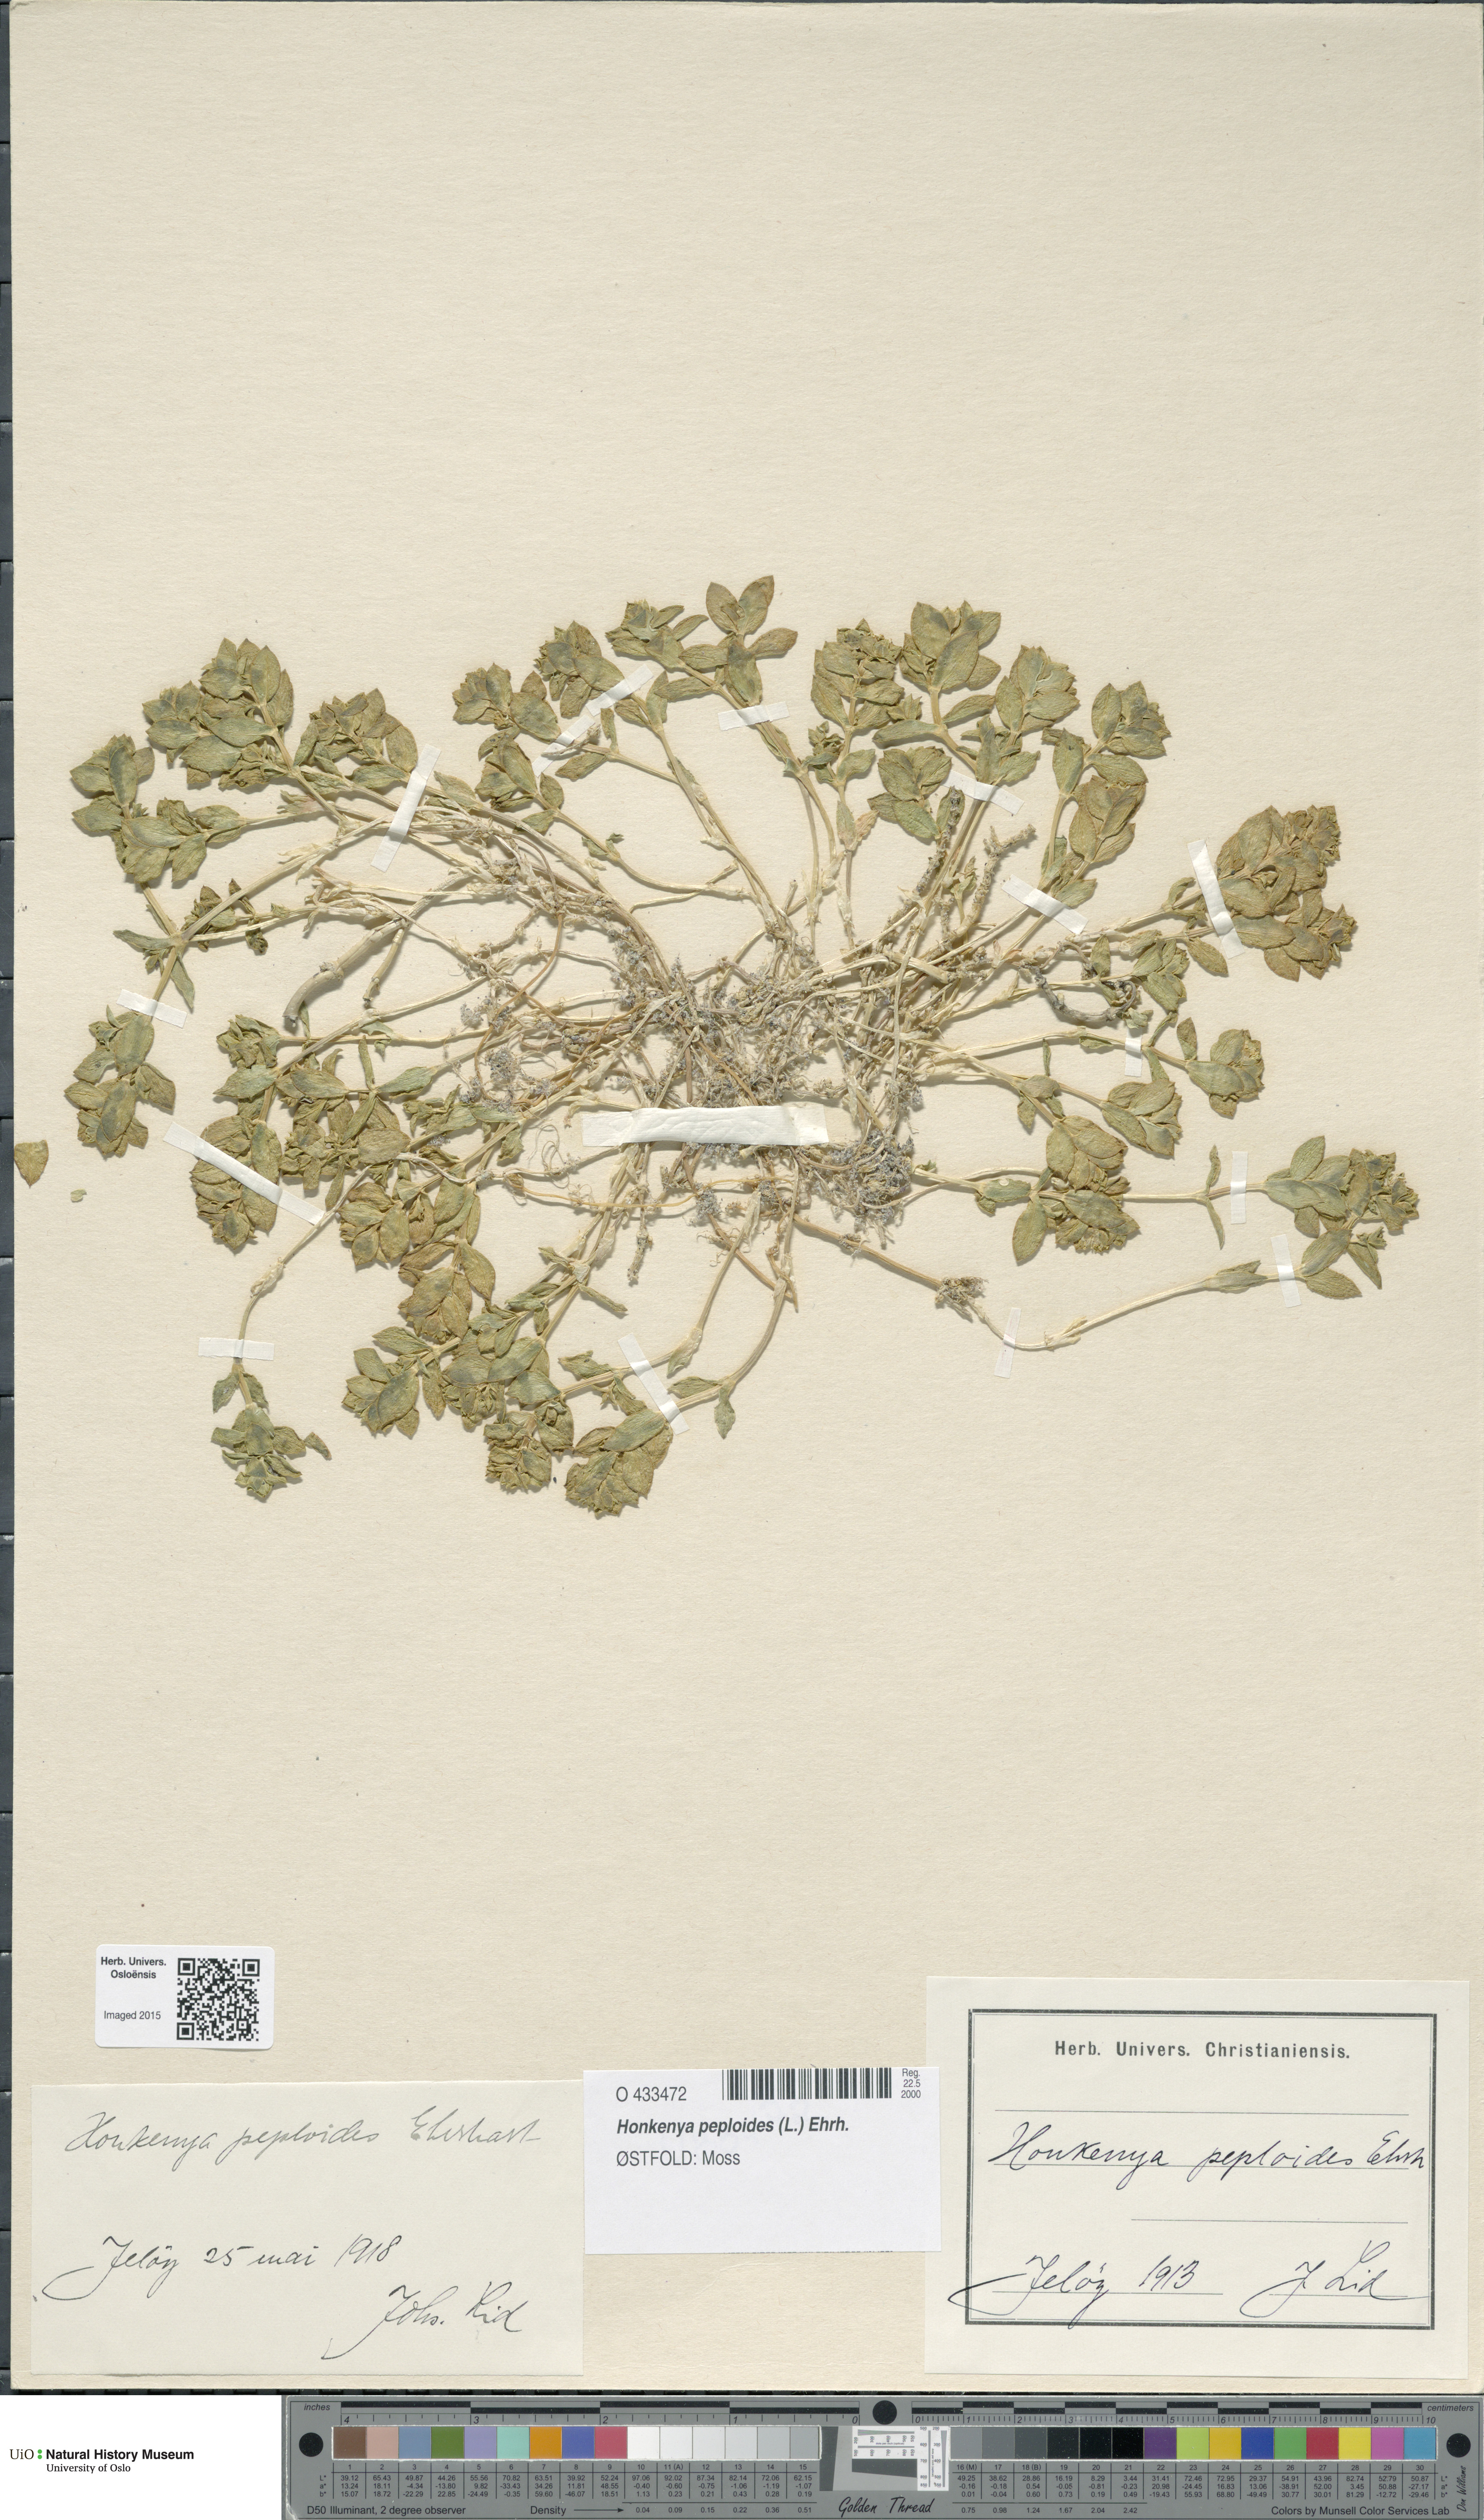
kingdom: Plantae
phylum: Tracheophyta
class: Magnoliopsida
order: Caryophyllales
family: Caryophyllaceae
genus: Honckenya
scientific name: Honckenya peploides
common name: Sea sandwort
